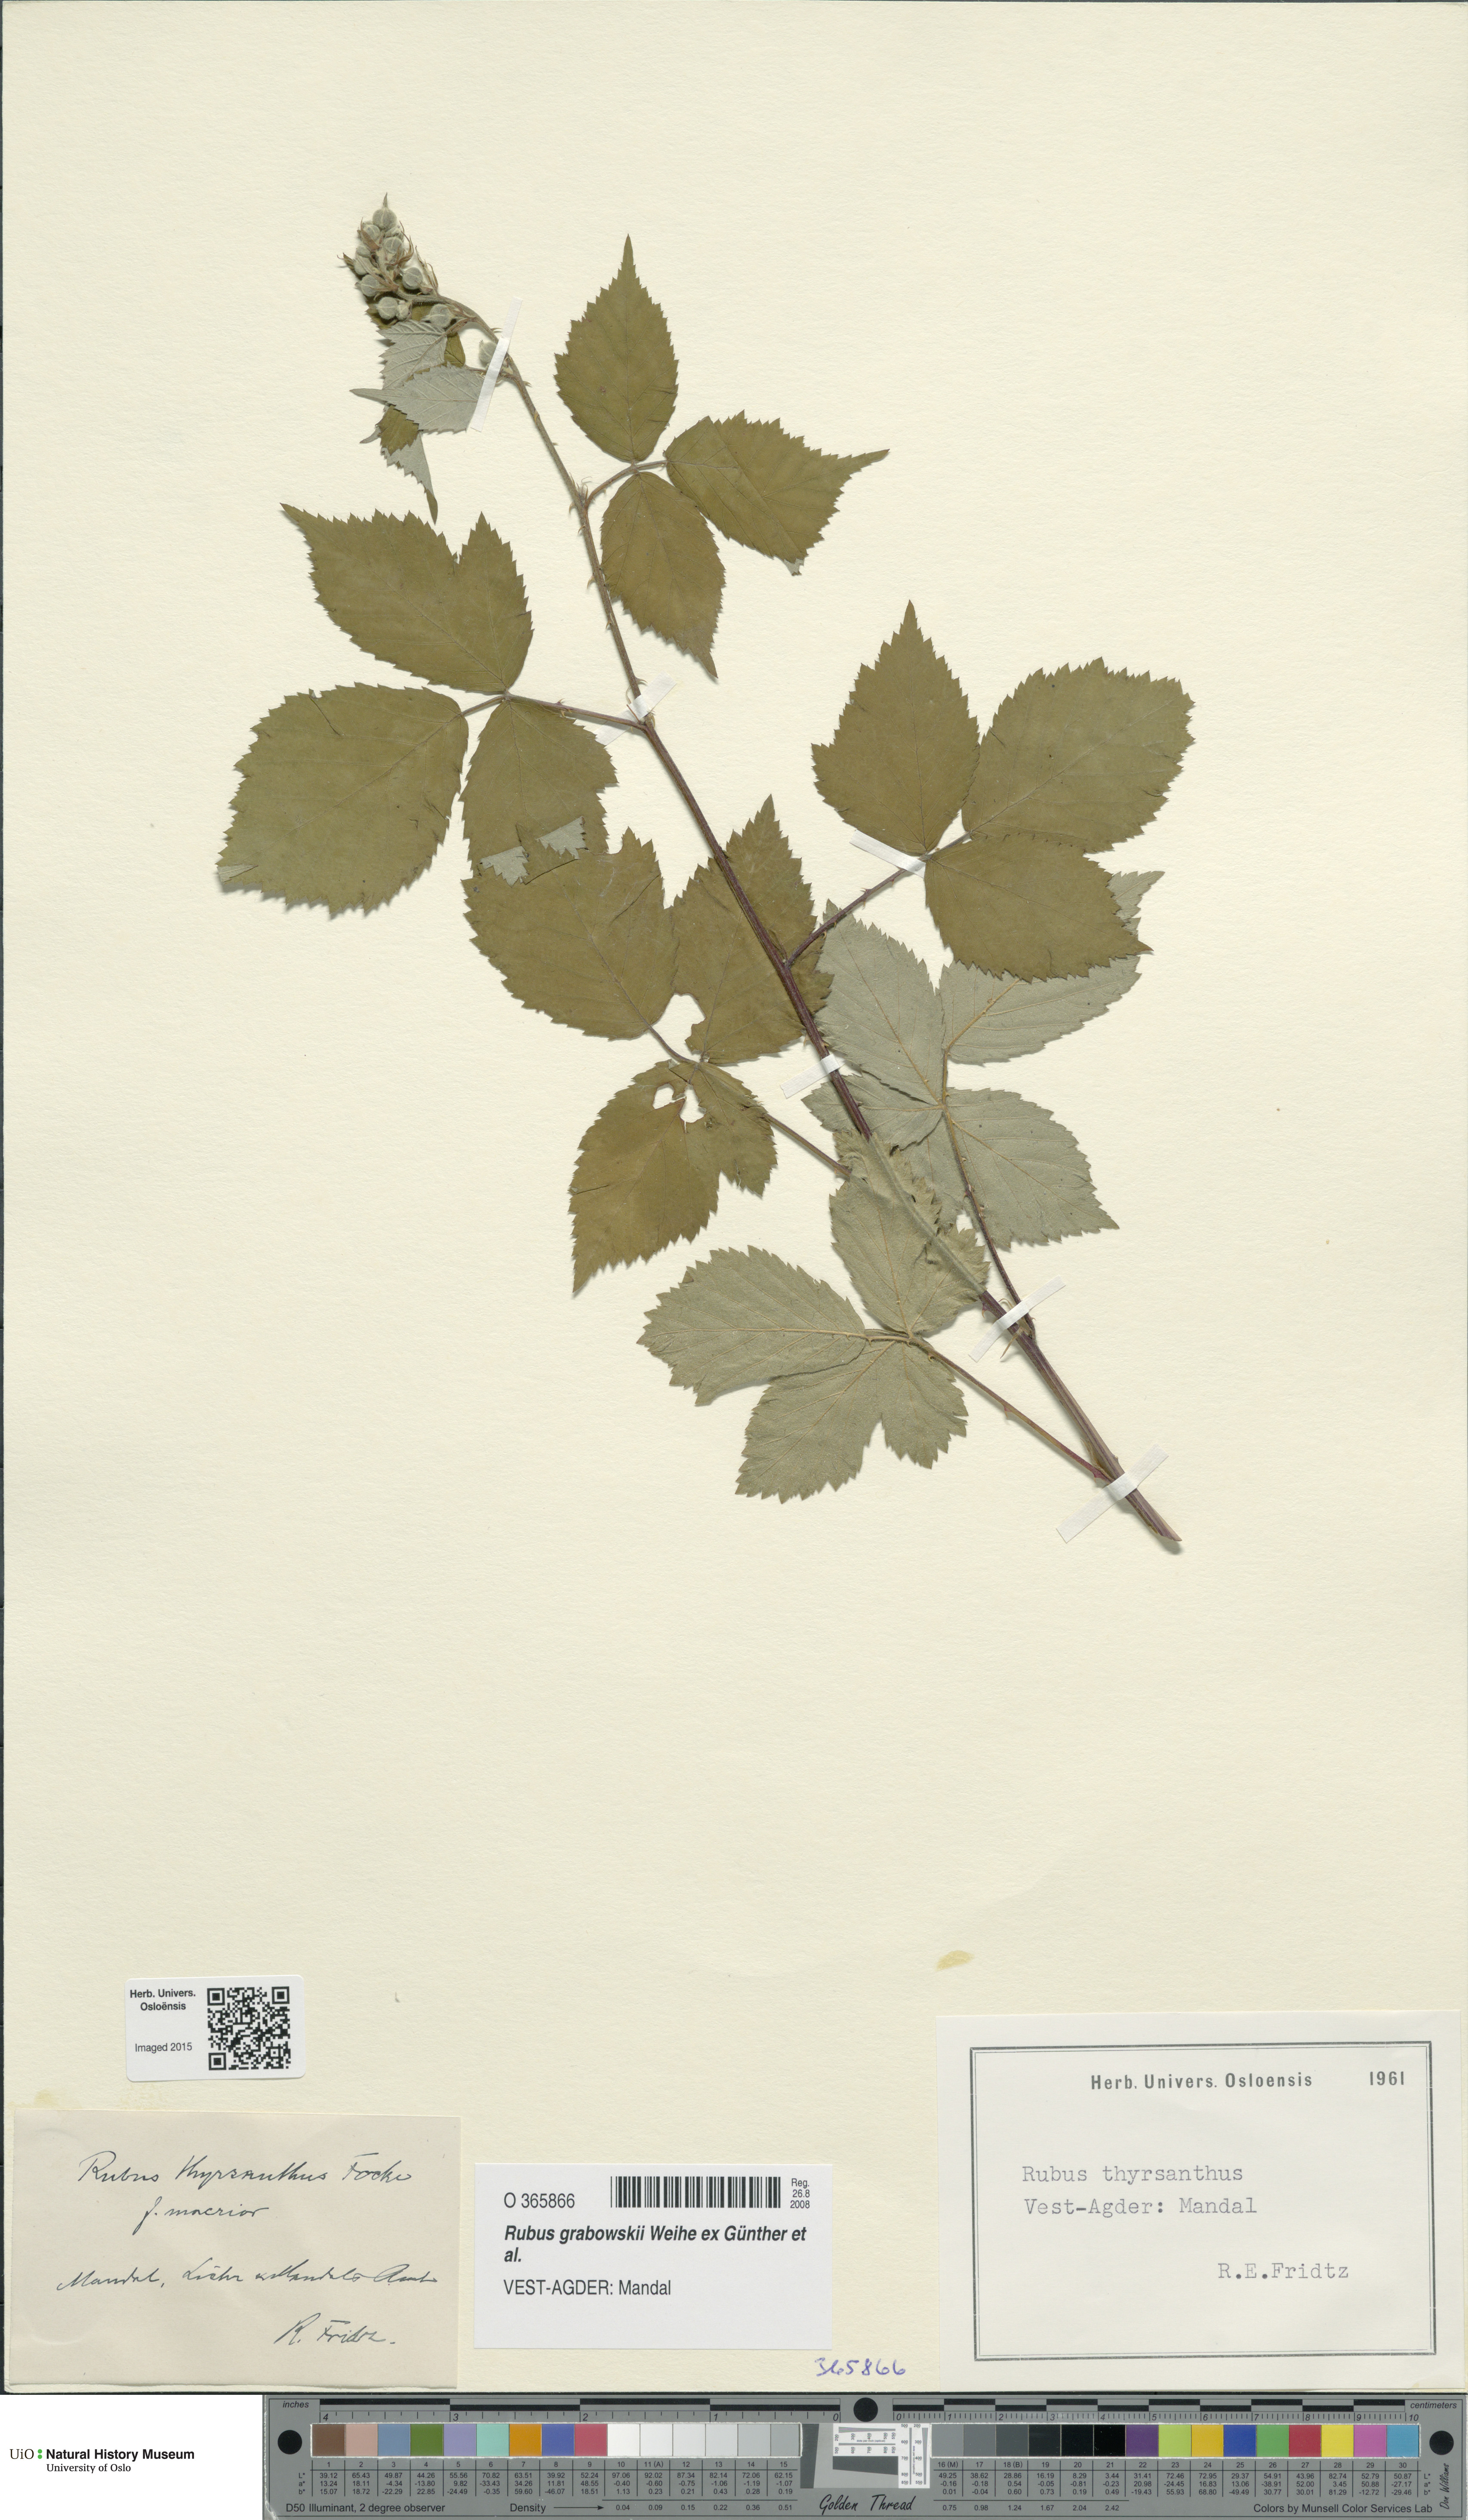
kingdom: Plantae
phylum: Tracheophyta
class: Magnoliopsida
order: Rosales
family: Rosaceae
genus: Rubus
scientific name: Rubus grabowskii
